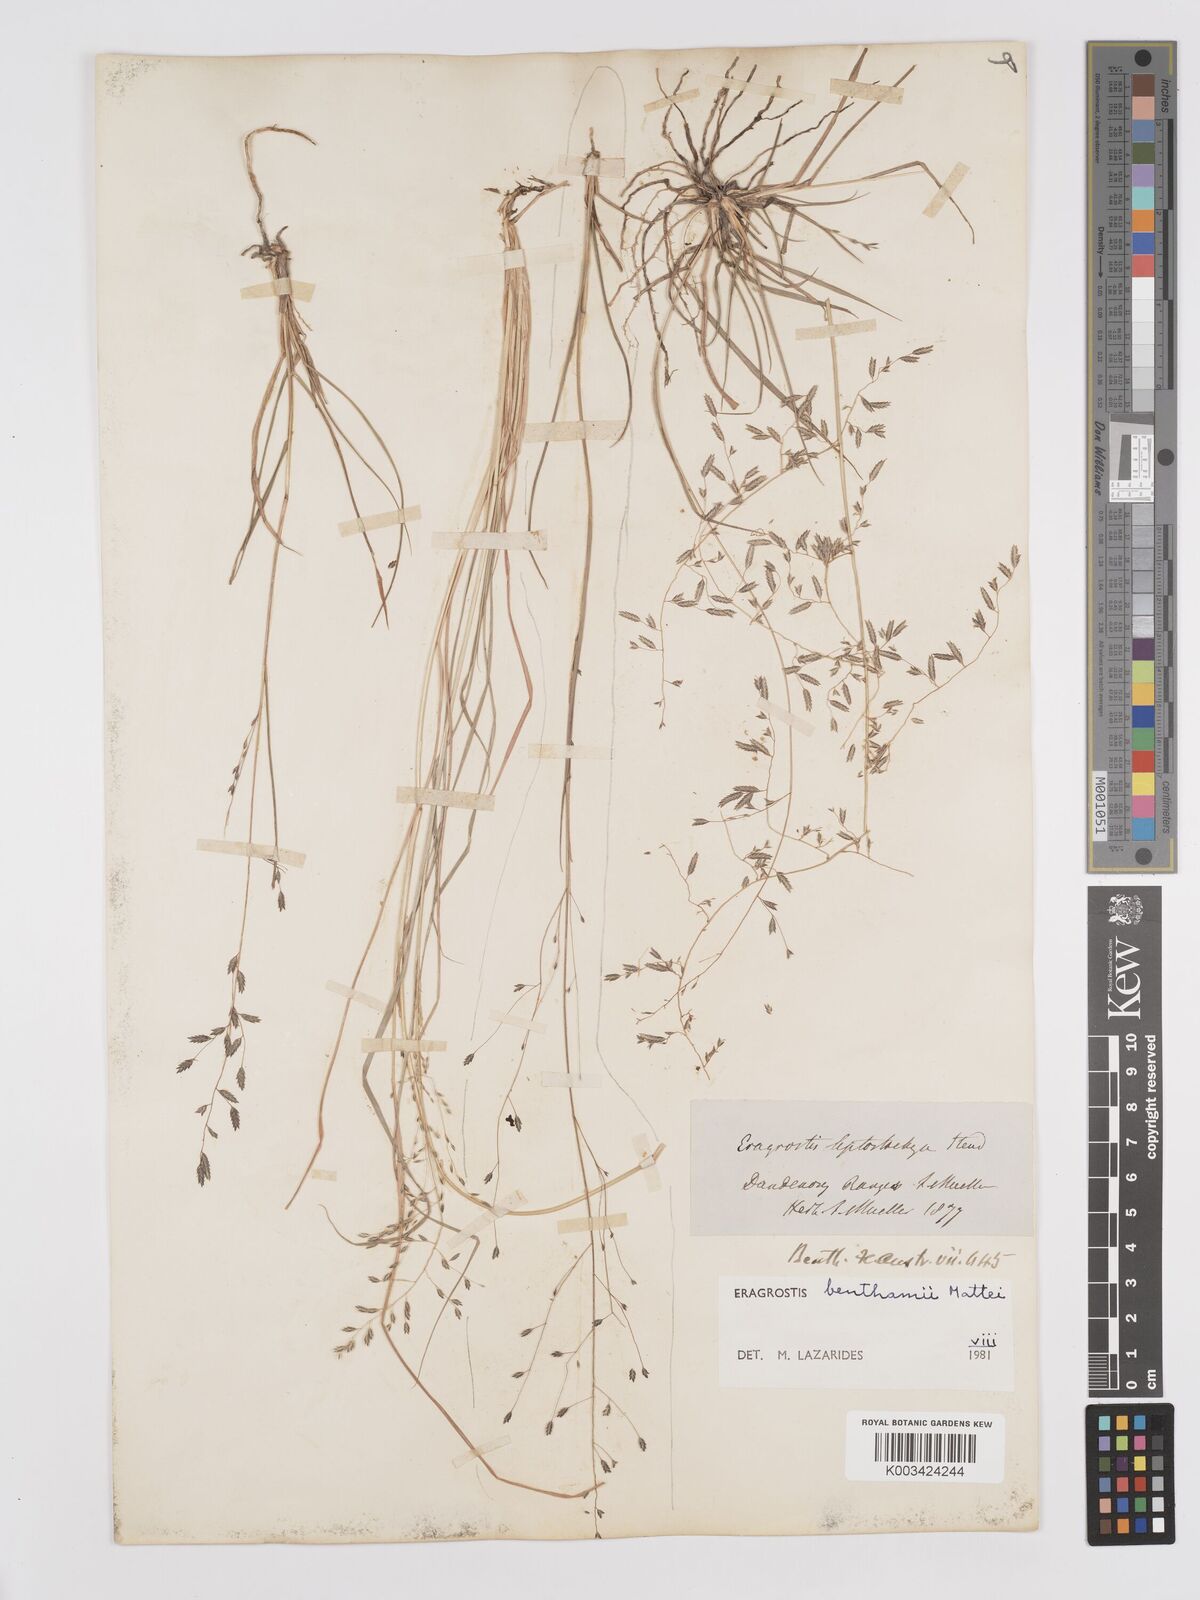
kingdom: Plantae
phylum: Tracheophyta
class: Liliopsida
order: Poales
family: Poaceae
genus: Eragrostis
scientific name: Eragrostis brownii
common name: Lovegrass
